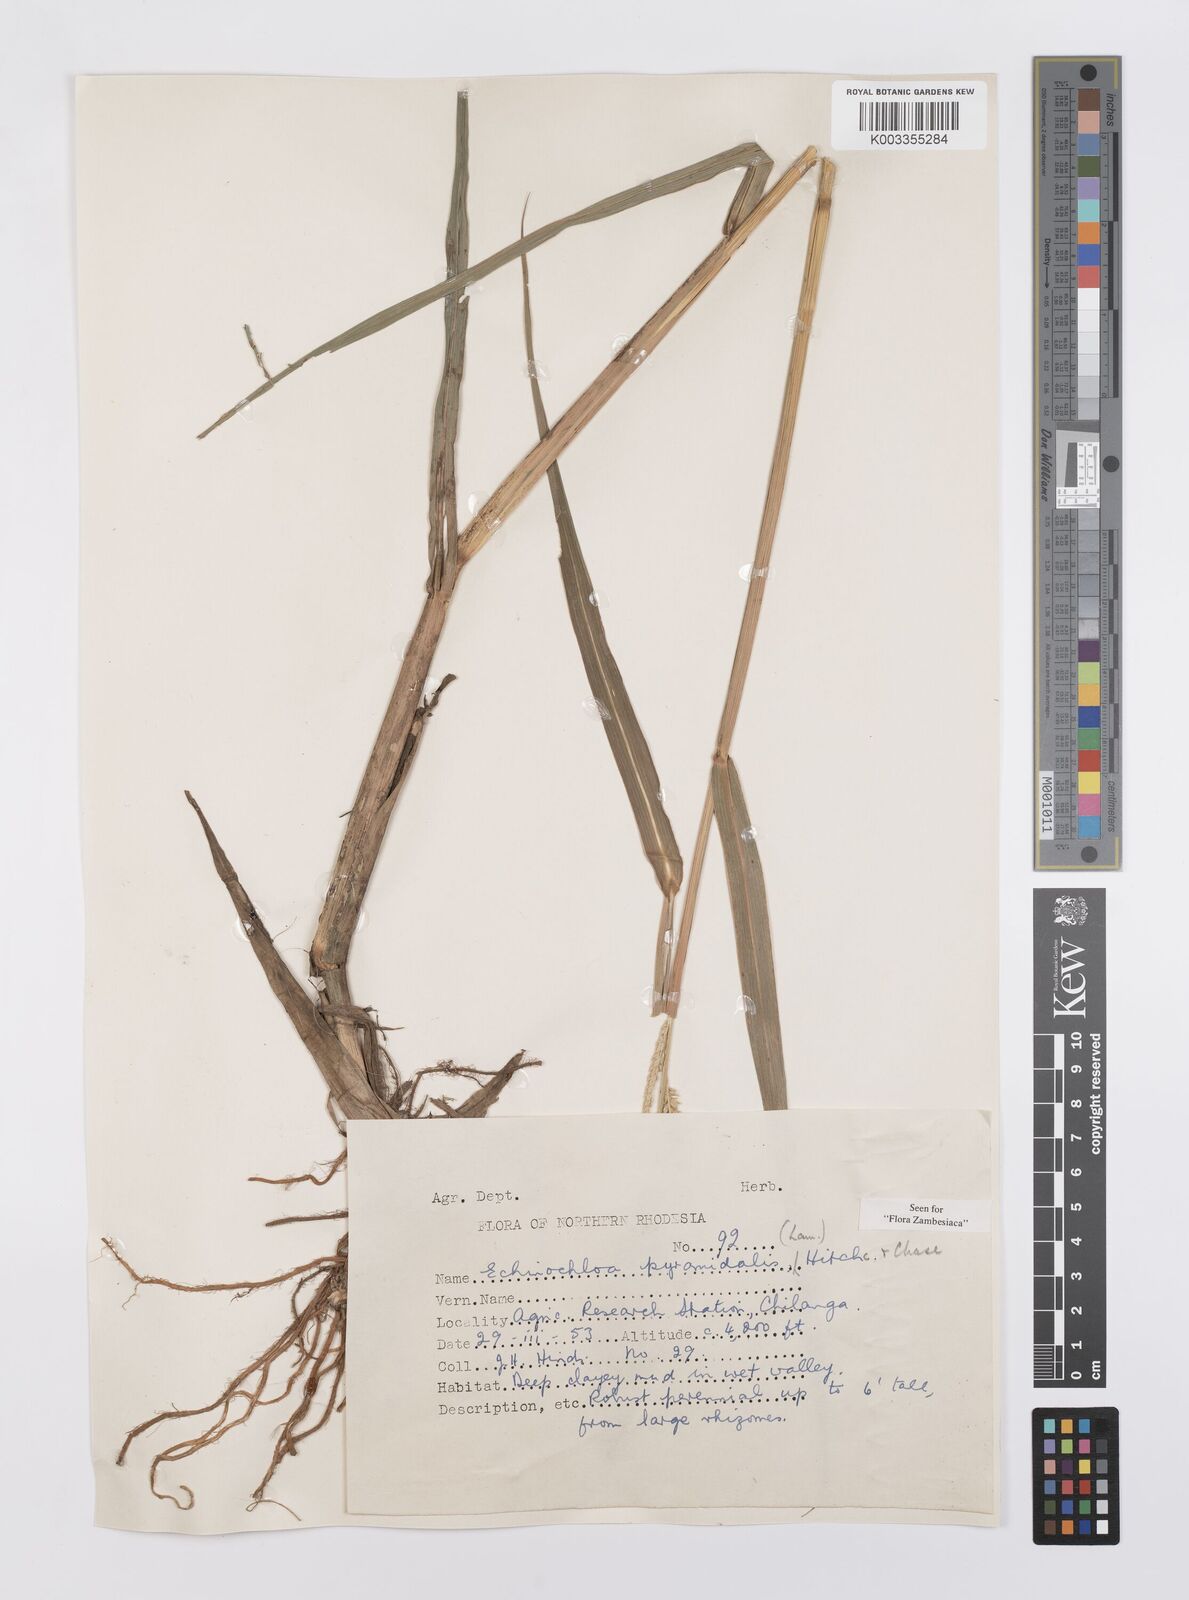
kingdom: Plantae
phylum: Tracheophyta
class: Liliopsida
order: Poales
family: Poaceae
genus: Echinochloa
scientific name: Echinochloa pyramidalis
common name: Antelope grass
